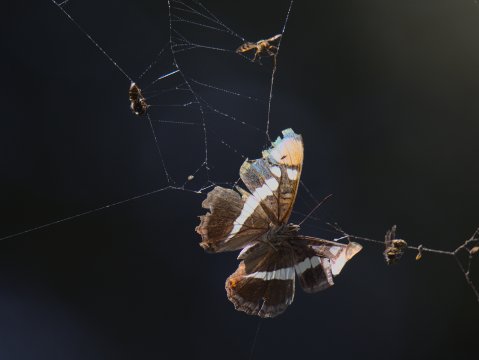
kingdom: Animalia
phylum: Arthropoda
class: Insecta
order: Lepidoptera
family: Nymphalidae
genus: Limenitis
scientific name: Limenitis bredowii
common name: California Sister
